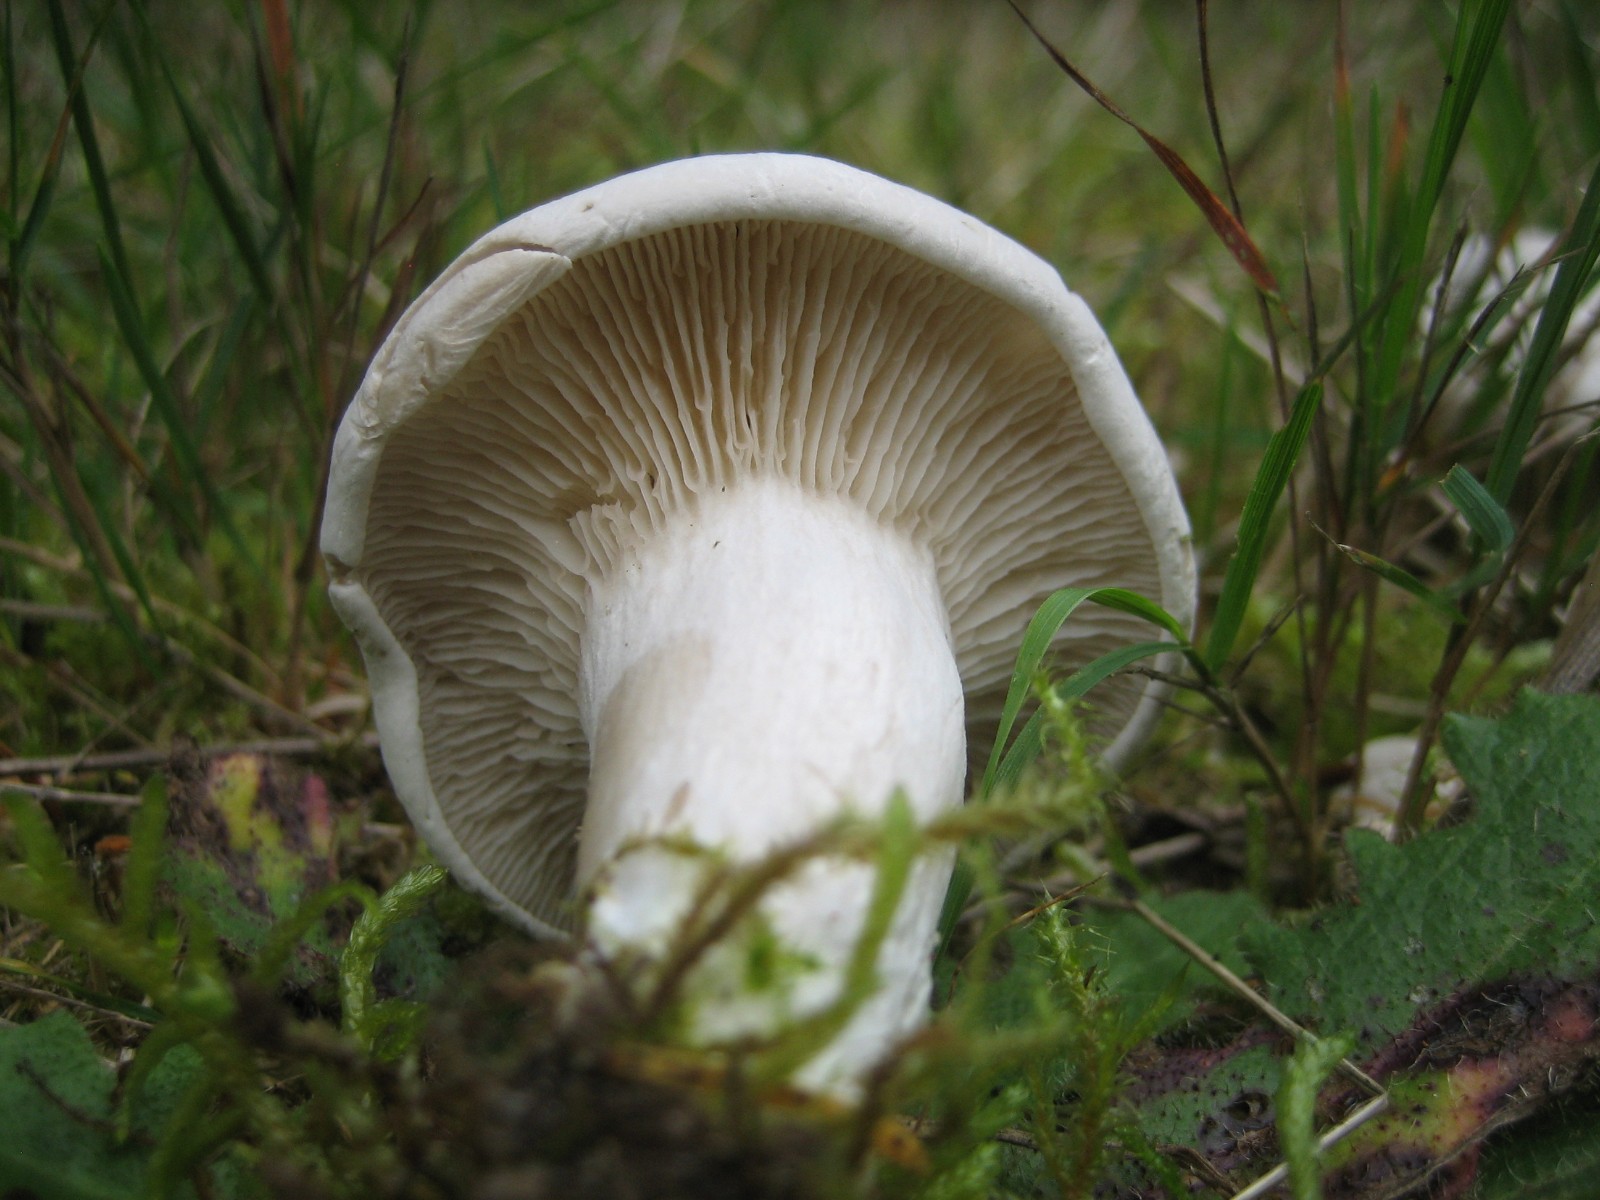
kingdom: Fungi
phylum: Basidiomycota
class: Agaricomycetes
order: Agaricales
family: Entolomataceae
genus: Clitopilus
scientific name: Clitopilus prunulus
